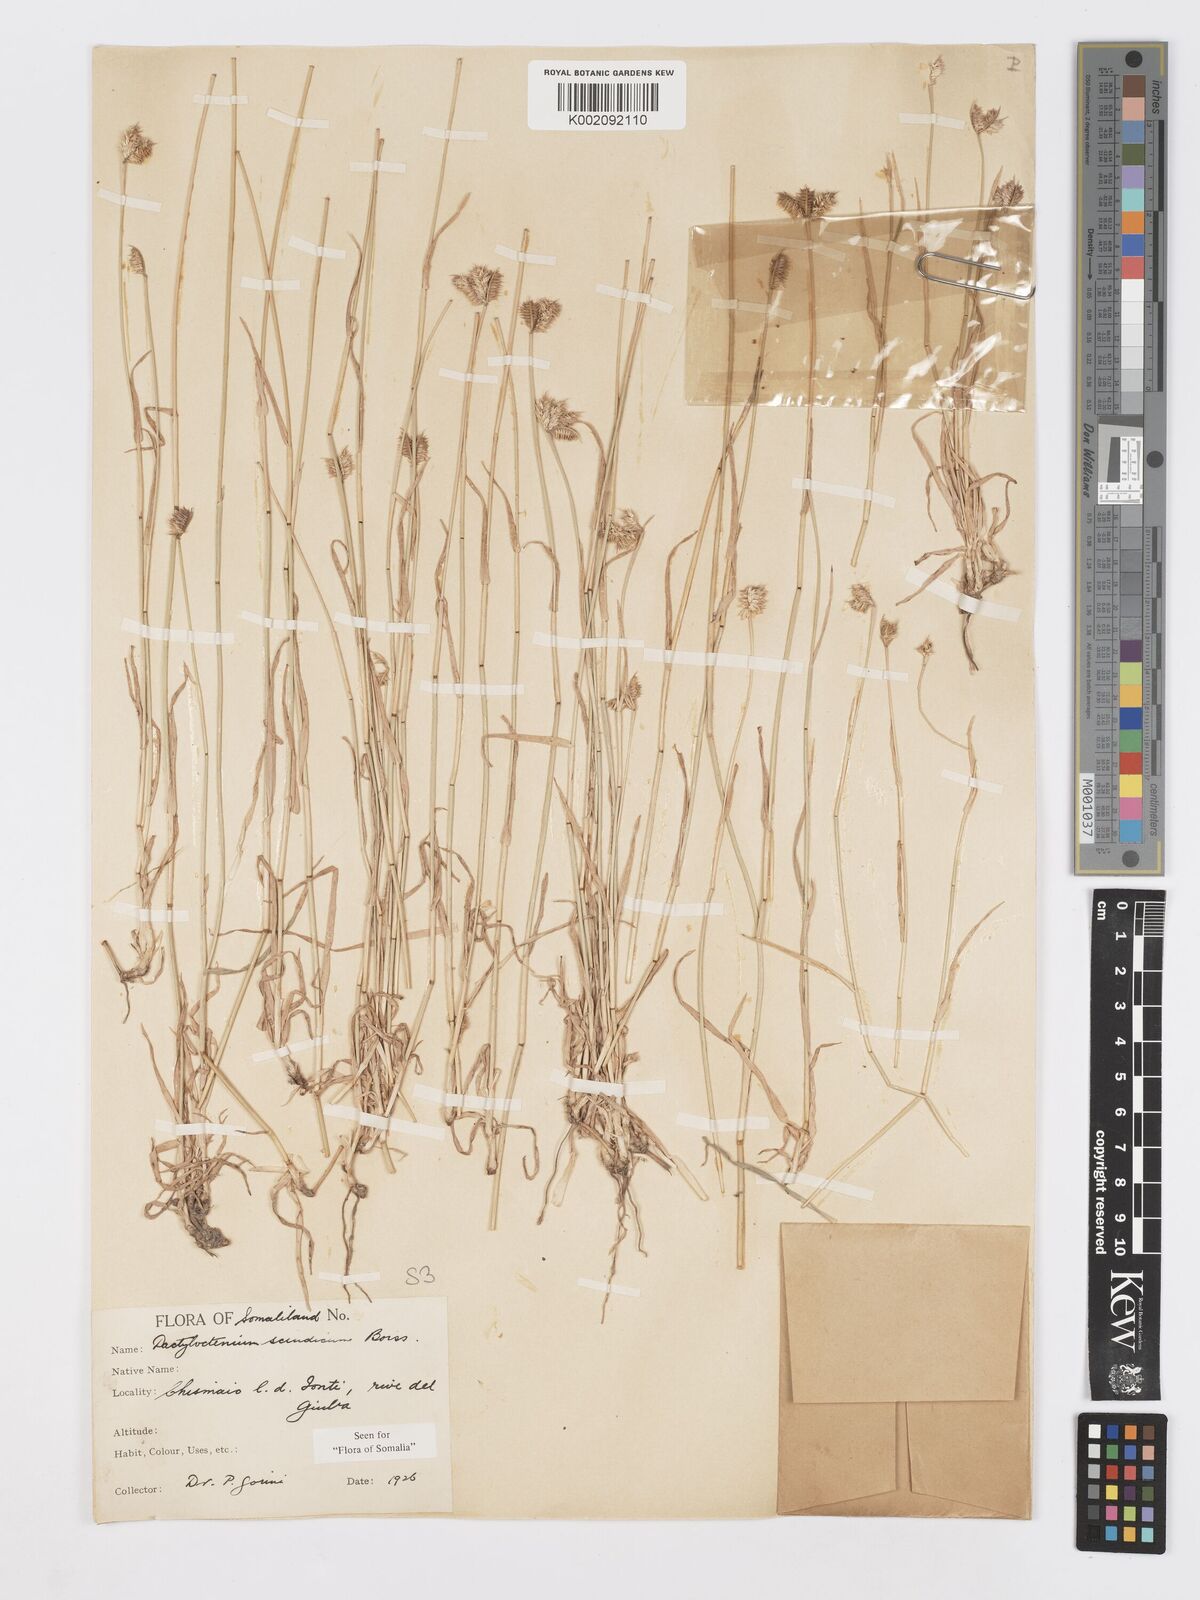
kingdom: Plantae
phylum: Tracheophyta
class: Liliopsida
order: Poales
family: Poaceae
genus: Dactyloctenium
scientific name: Dactyloctenium scindicum
